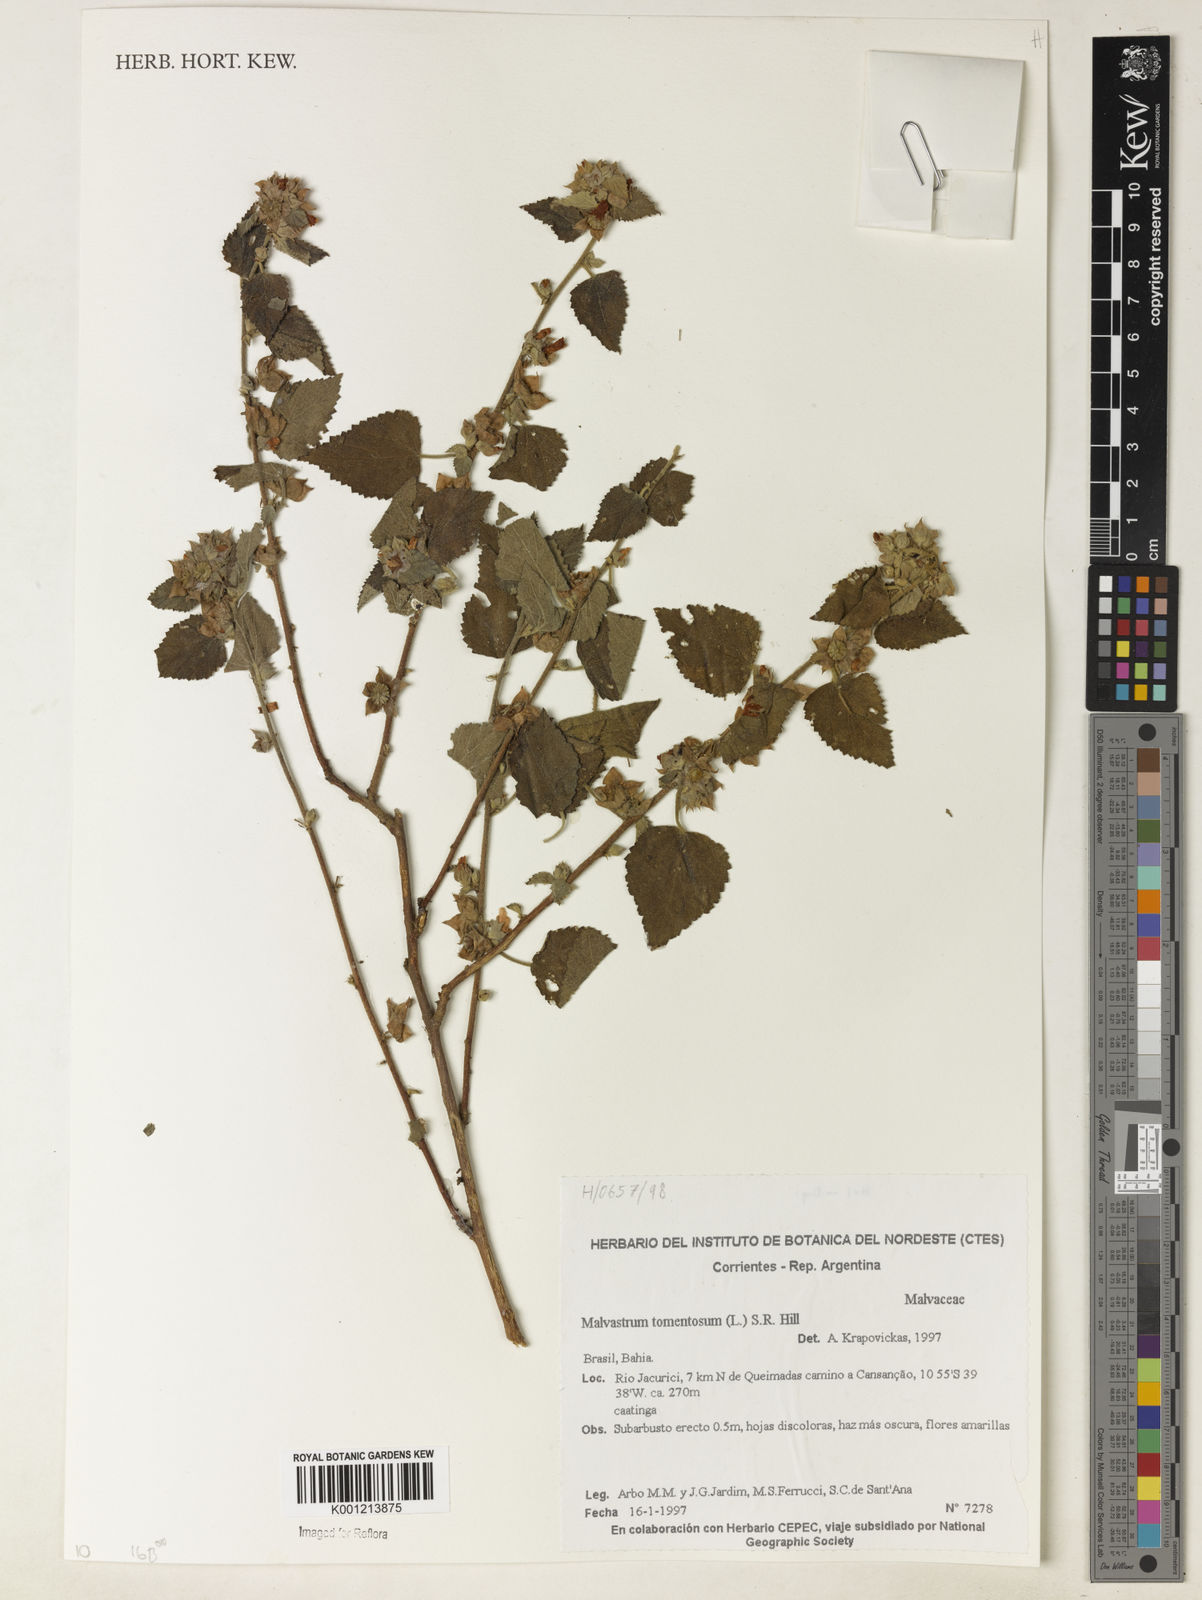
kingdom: Plantae
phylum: Tracheophyta
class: Magnoliopsida
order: Malvales
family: Malvaceae
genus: Malvastrum
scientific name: Malvastrum tomentosum
